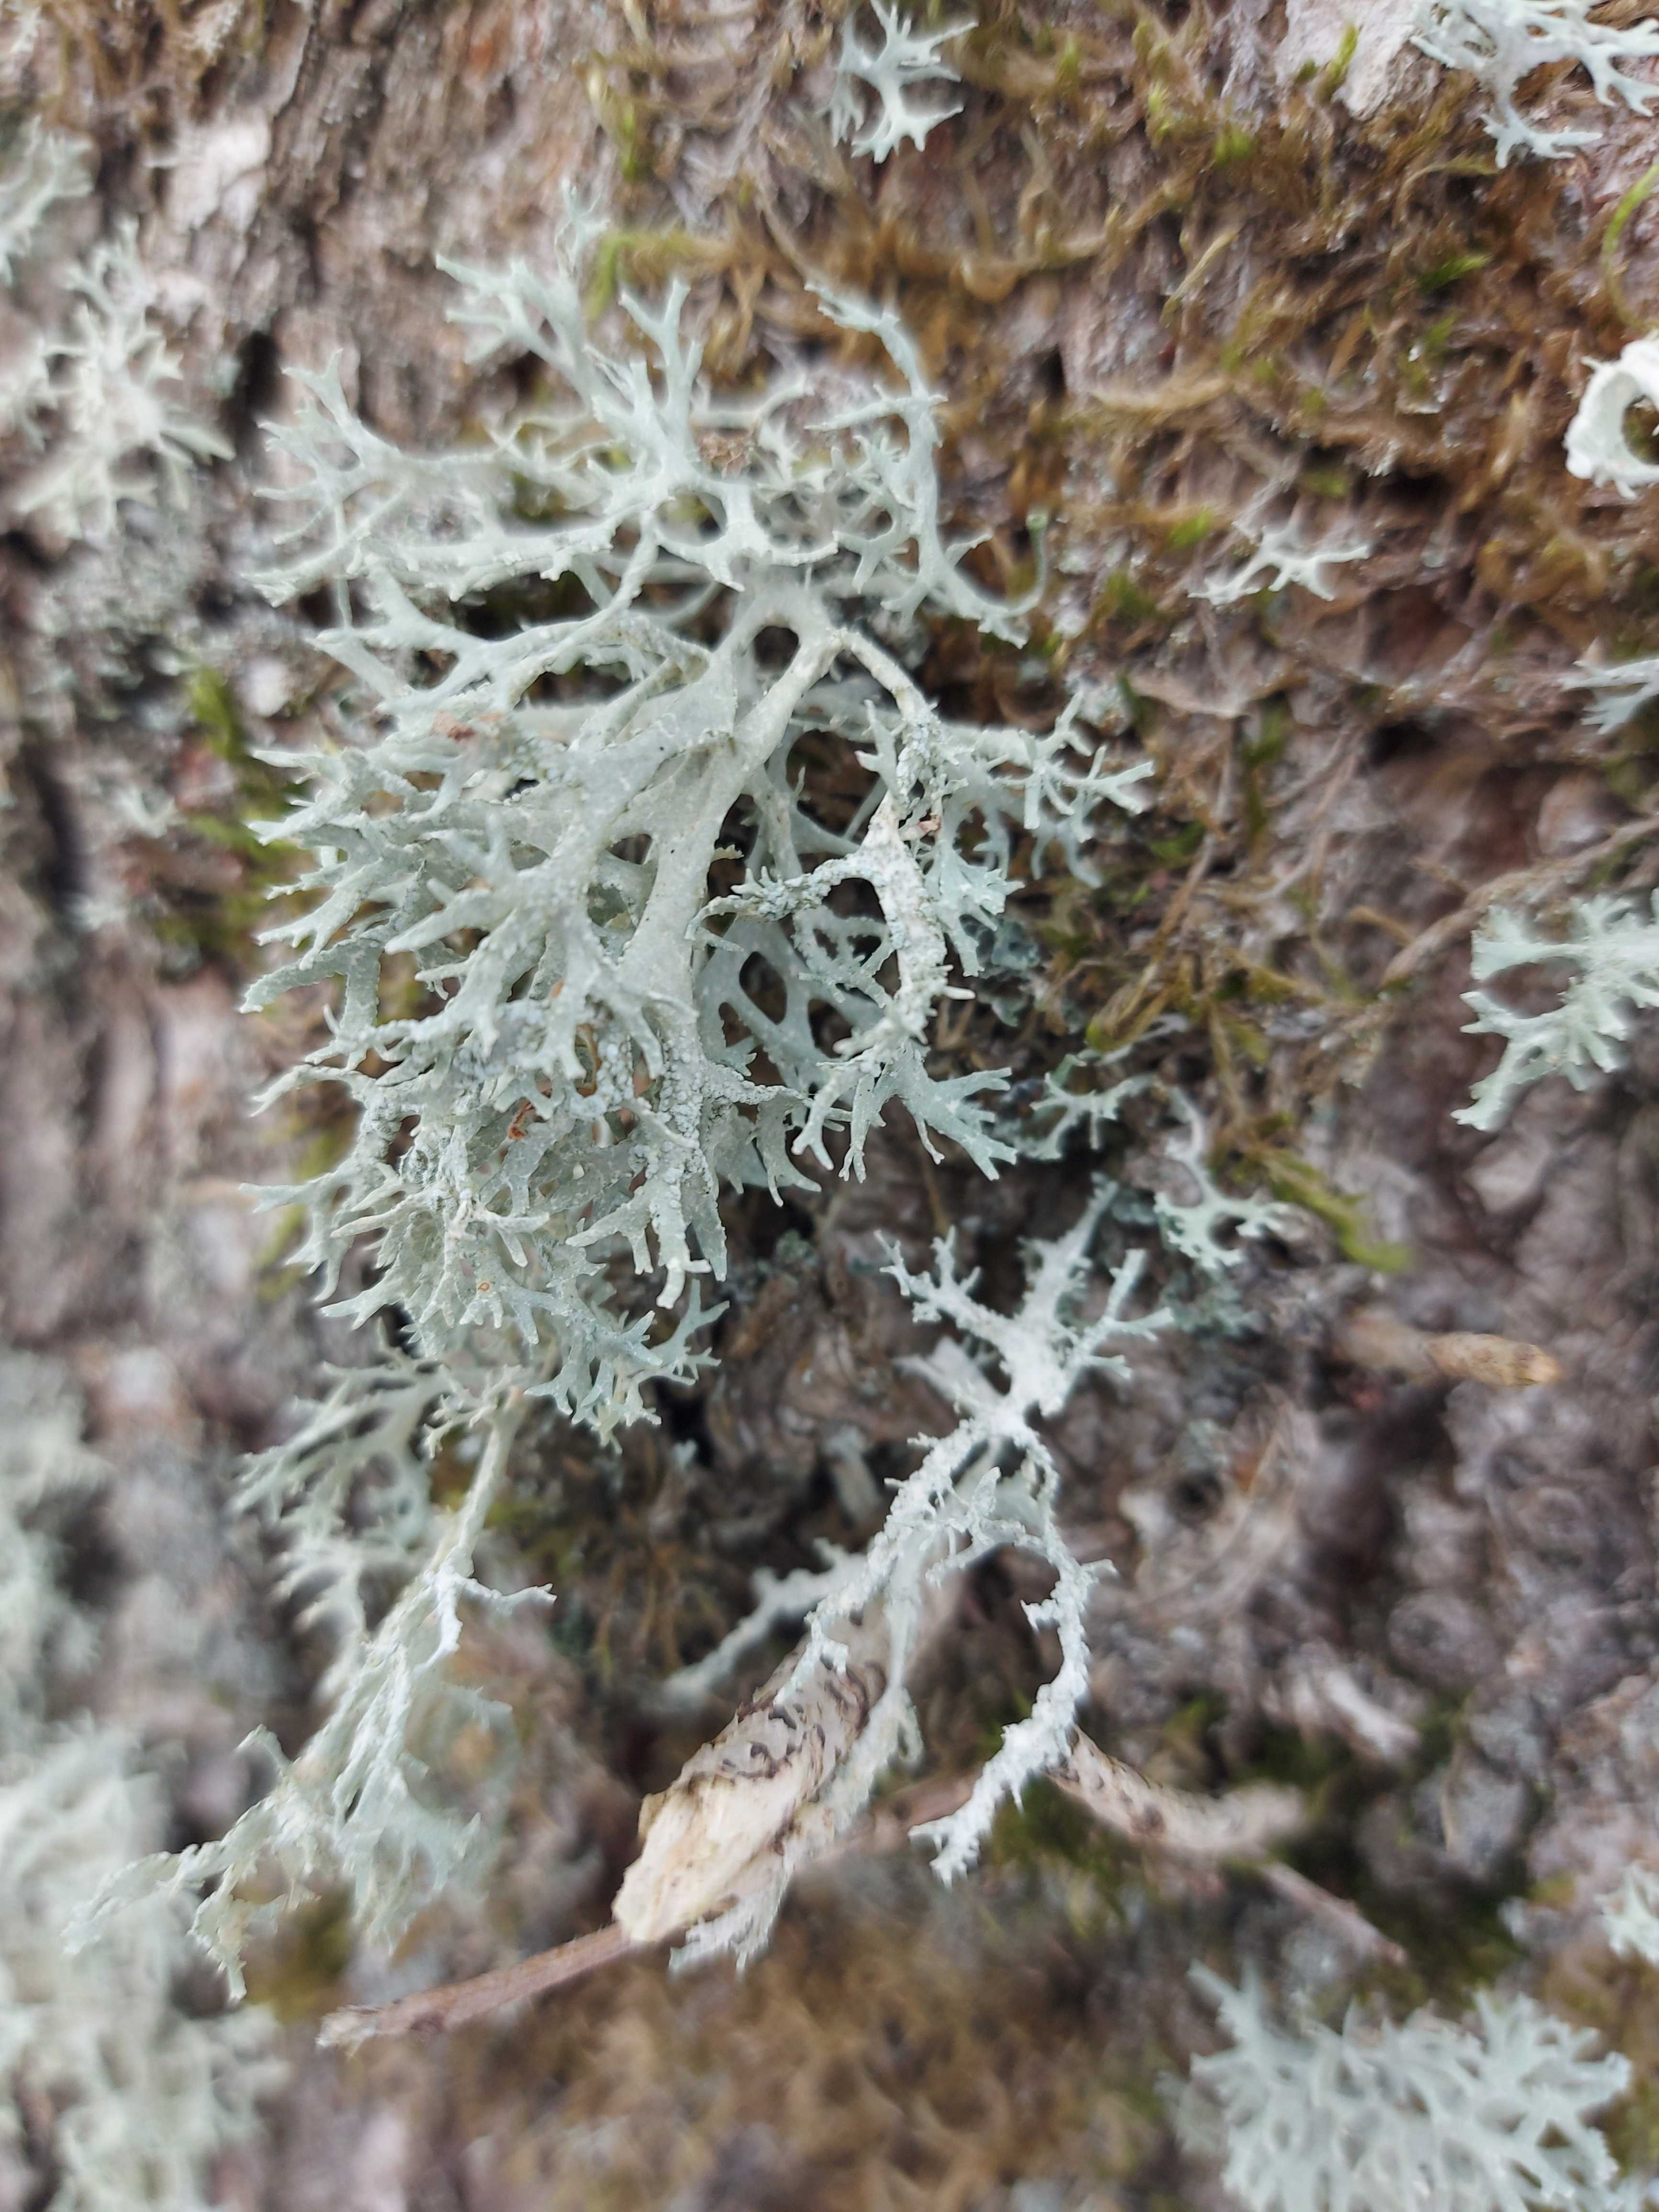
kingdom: Fungi
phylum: Ascomycota
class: Lecanoromycetes
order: Lecanorales
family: Parmeliaceae
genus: Evernia
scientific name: Evernia prunastri
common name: almindelig slåenlav
